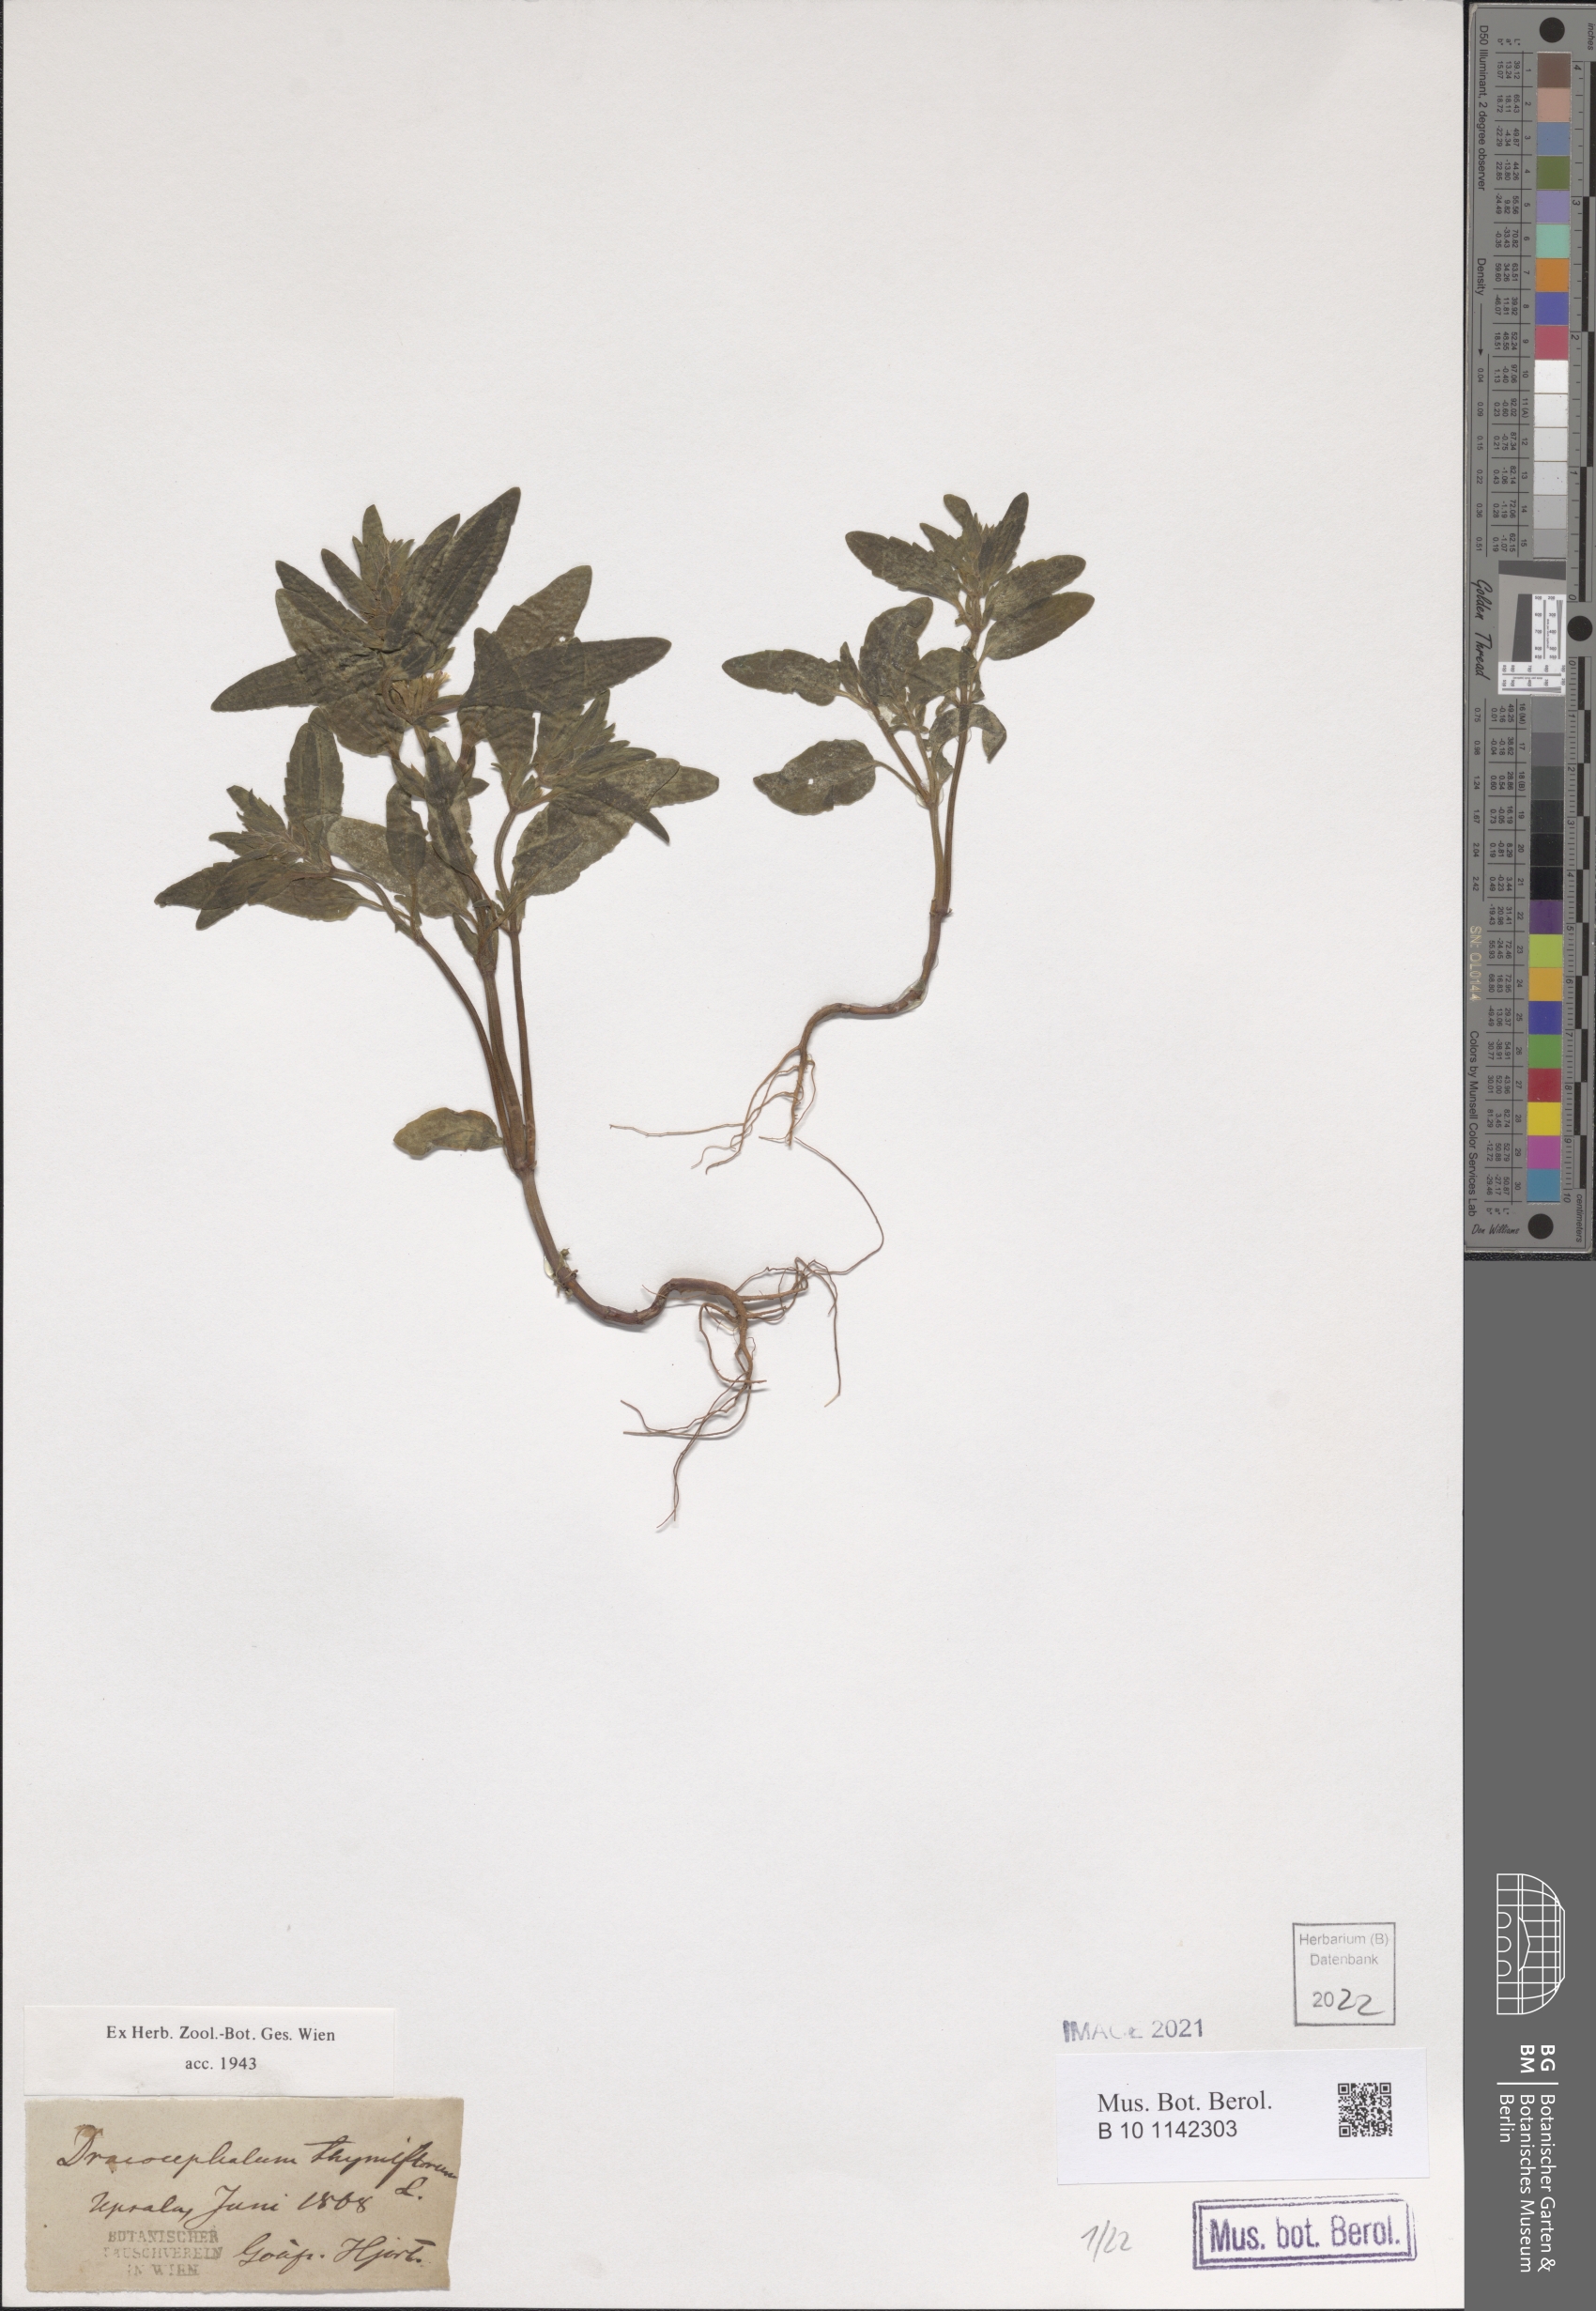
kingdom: Plantae
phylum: Tracheophyta
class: Magnoliopsida
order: Lamiales
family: Lamiaceae
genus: Dracocephalum
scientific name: Dracocephalum thymiflorum
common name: Thymeleaf dragonhead
